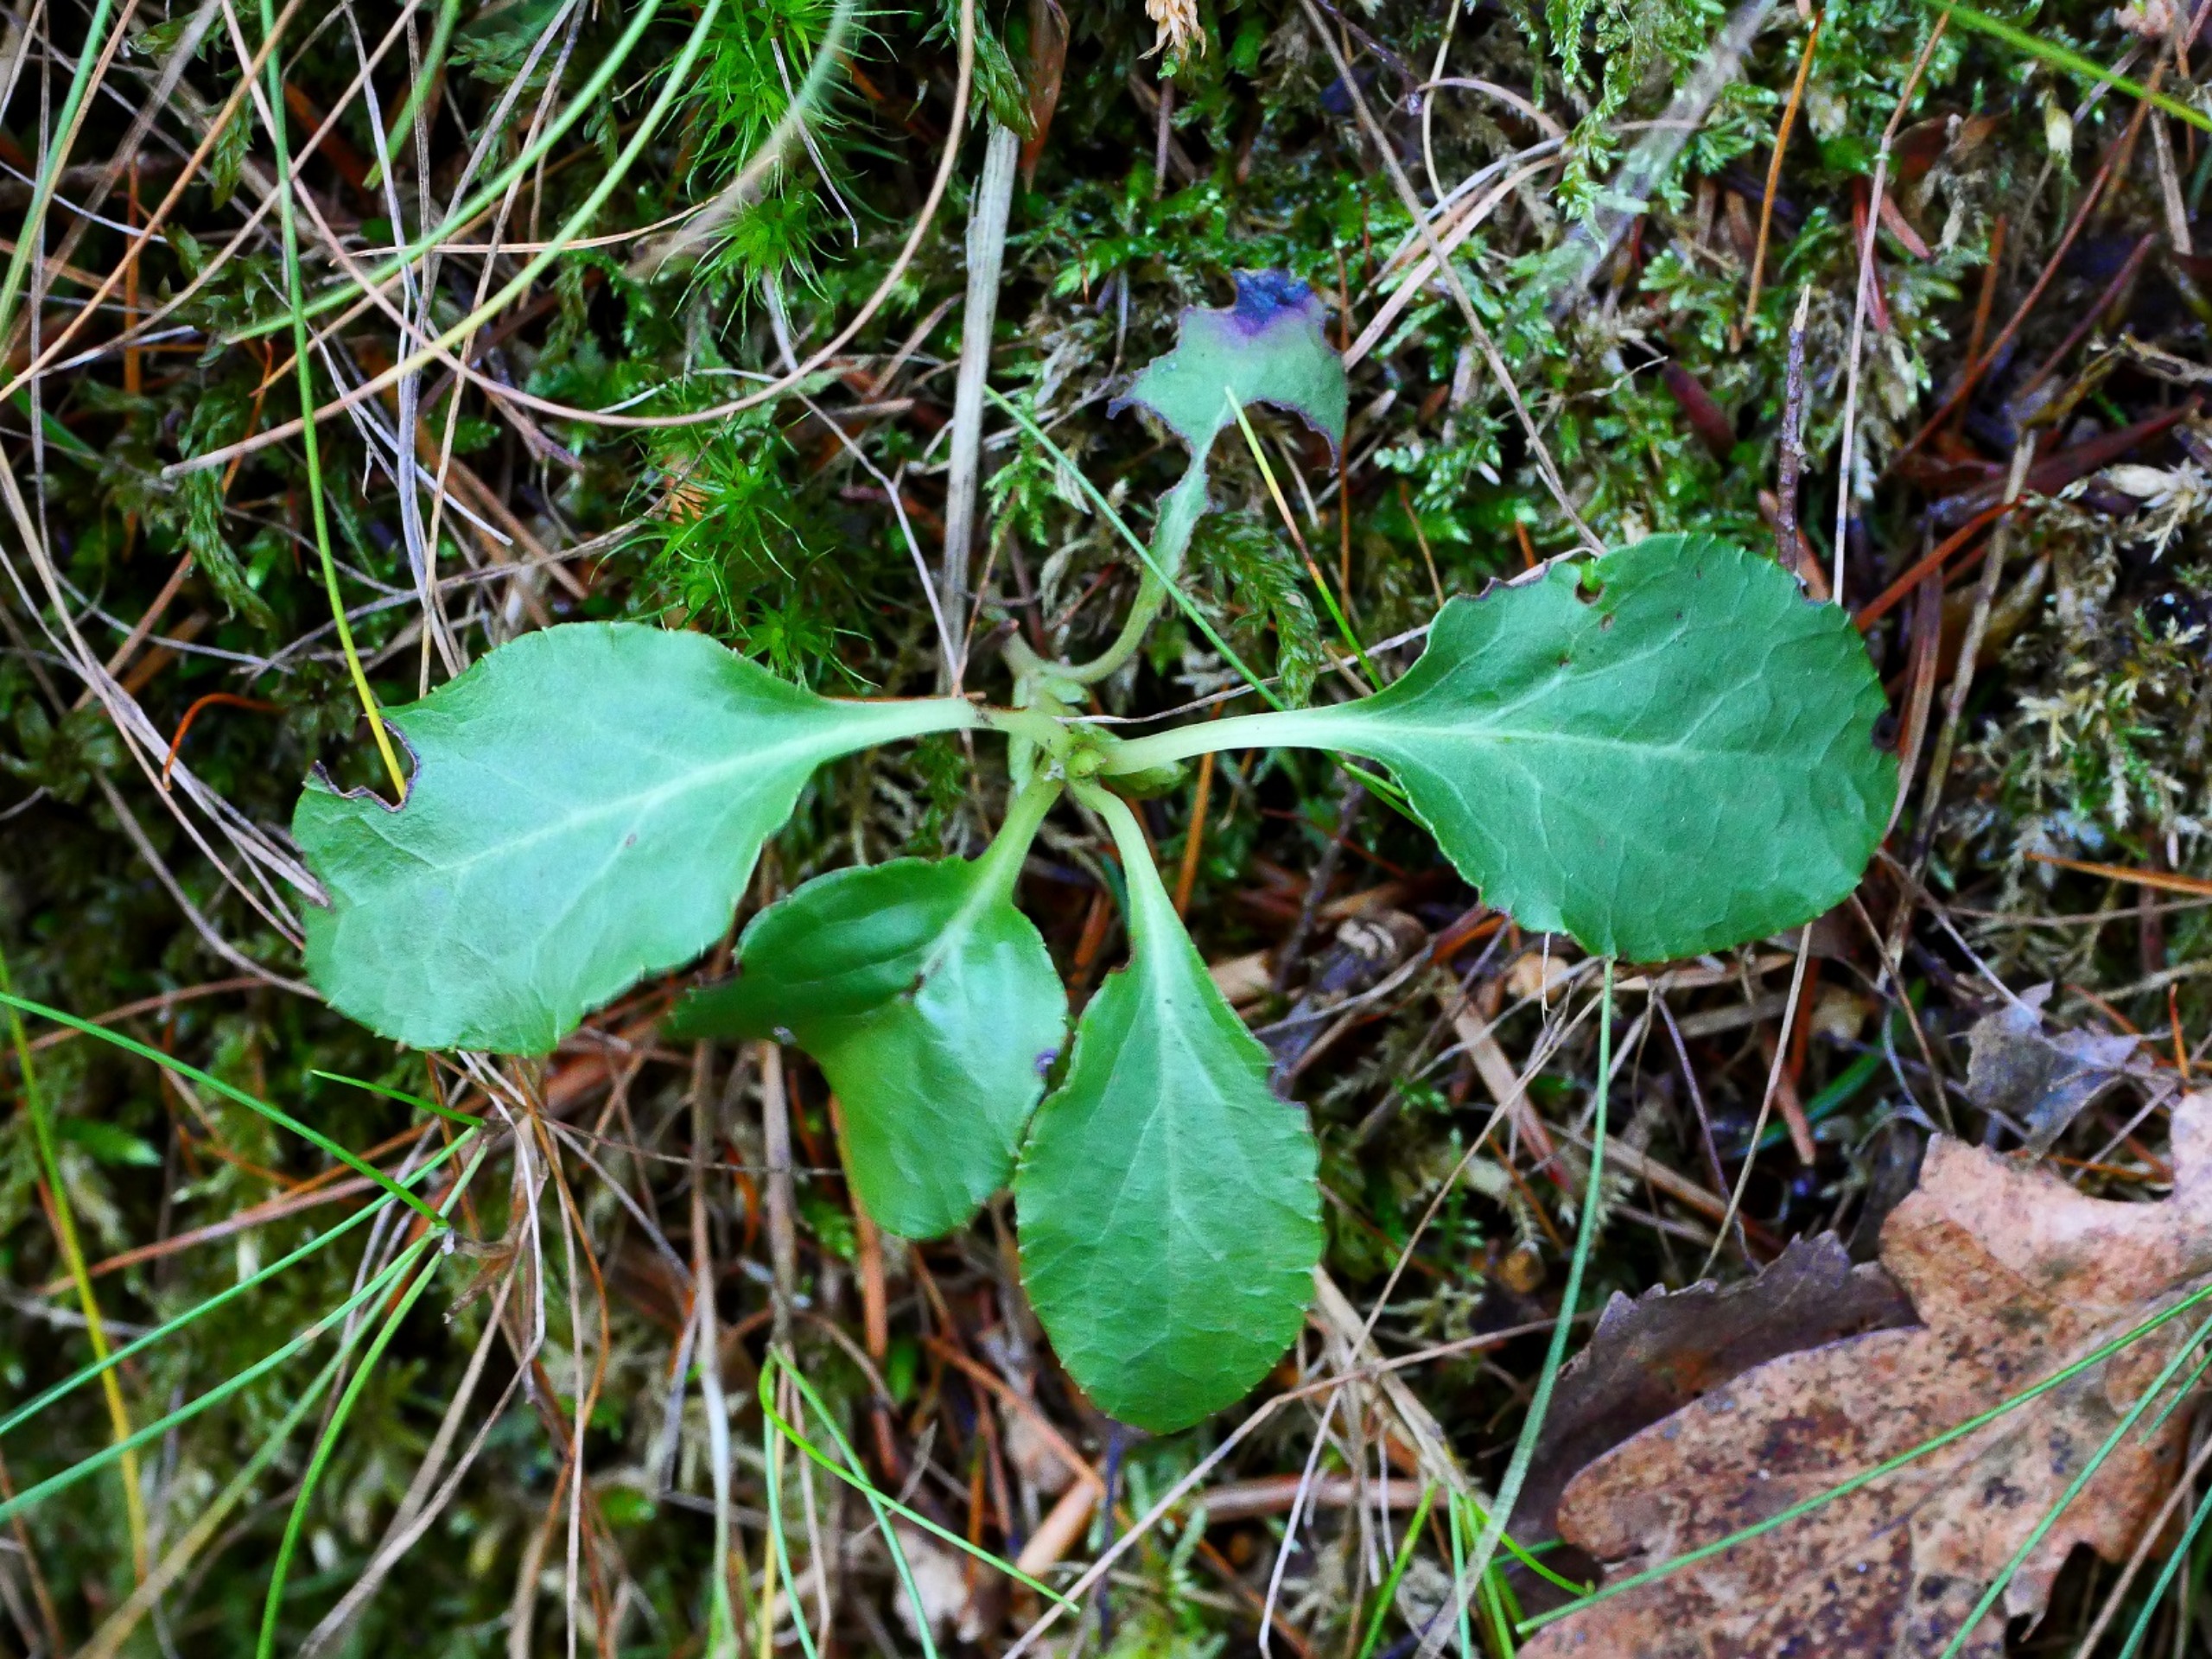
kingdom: Plantae
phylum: Tracheophyta
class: Magnoliopsida
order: Ericales
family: Ericaceae
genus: Pyrola
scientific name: Pyrola minor
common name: Liden vintergrøn
